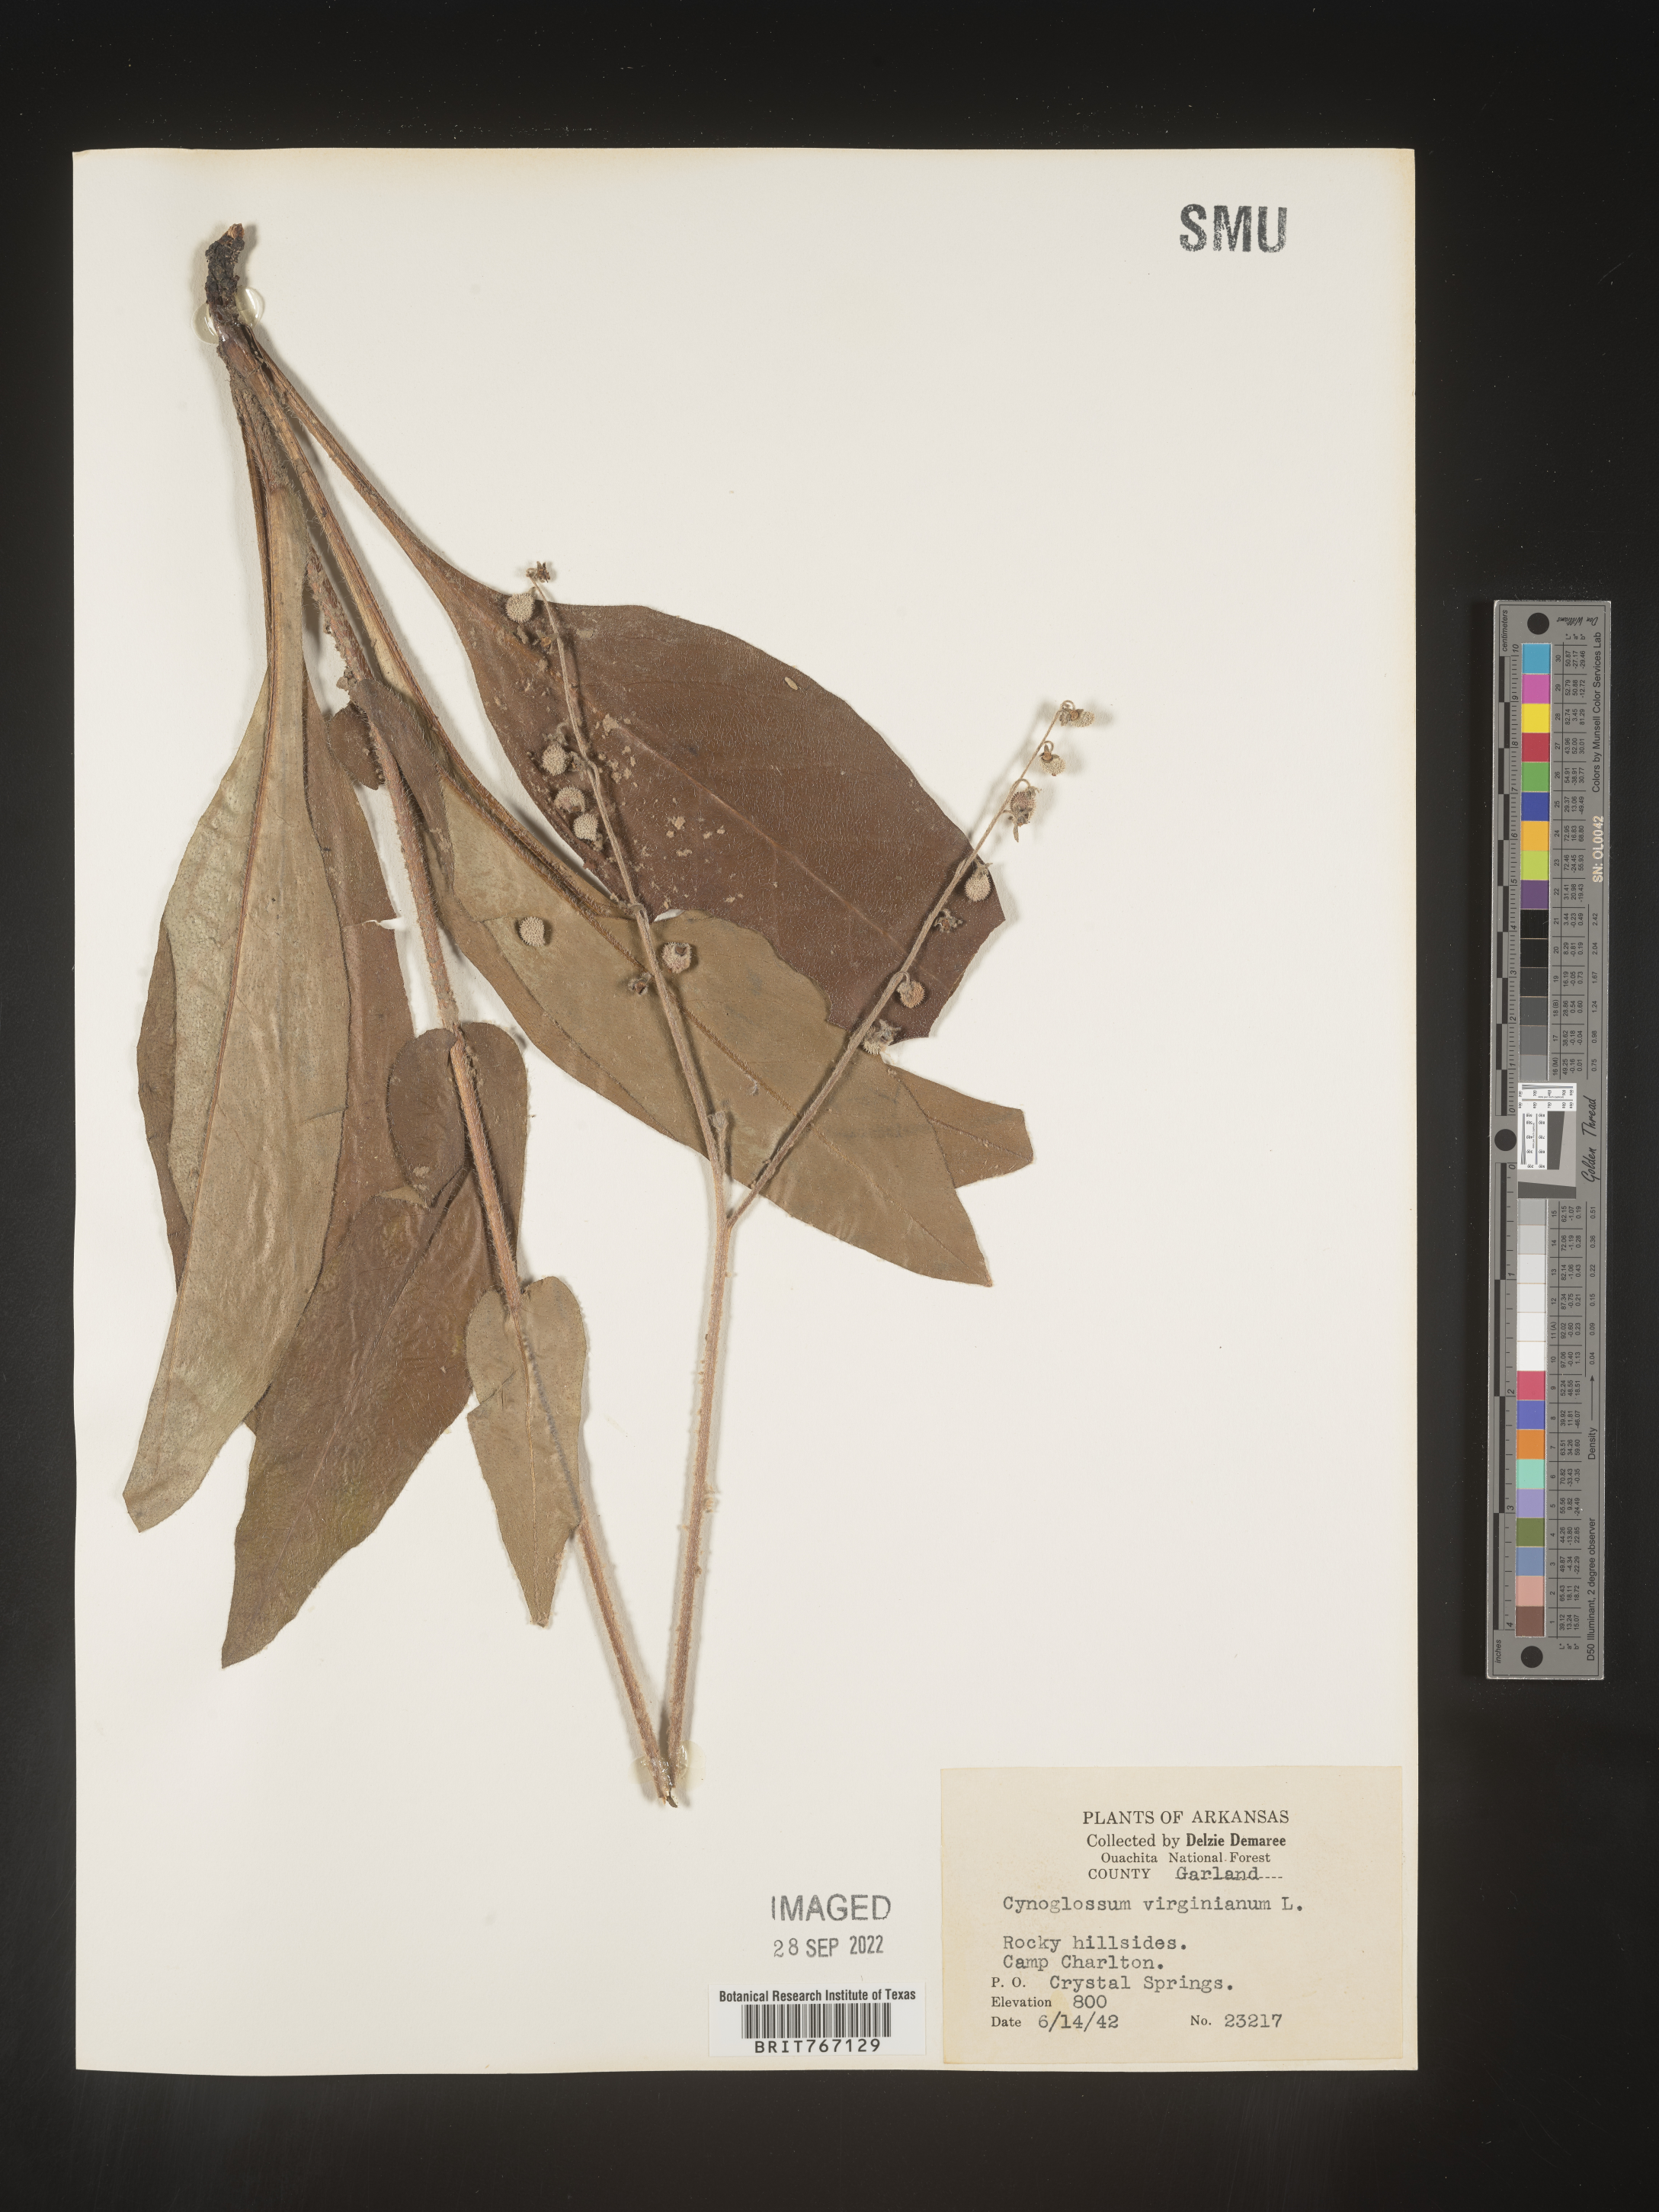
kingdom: Plantae
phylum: Tracheophyta
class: Magnoliopsida
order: Boraginales
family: Boraginaceae
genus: Andersonglossum
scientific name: Andersonglossum virginianum
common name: Wild comfrey
